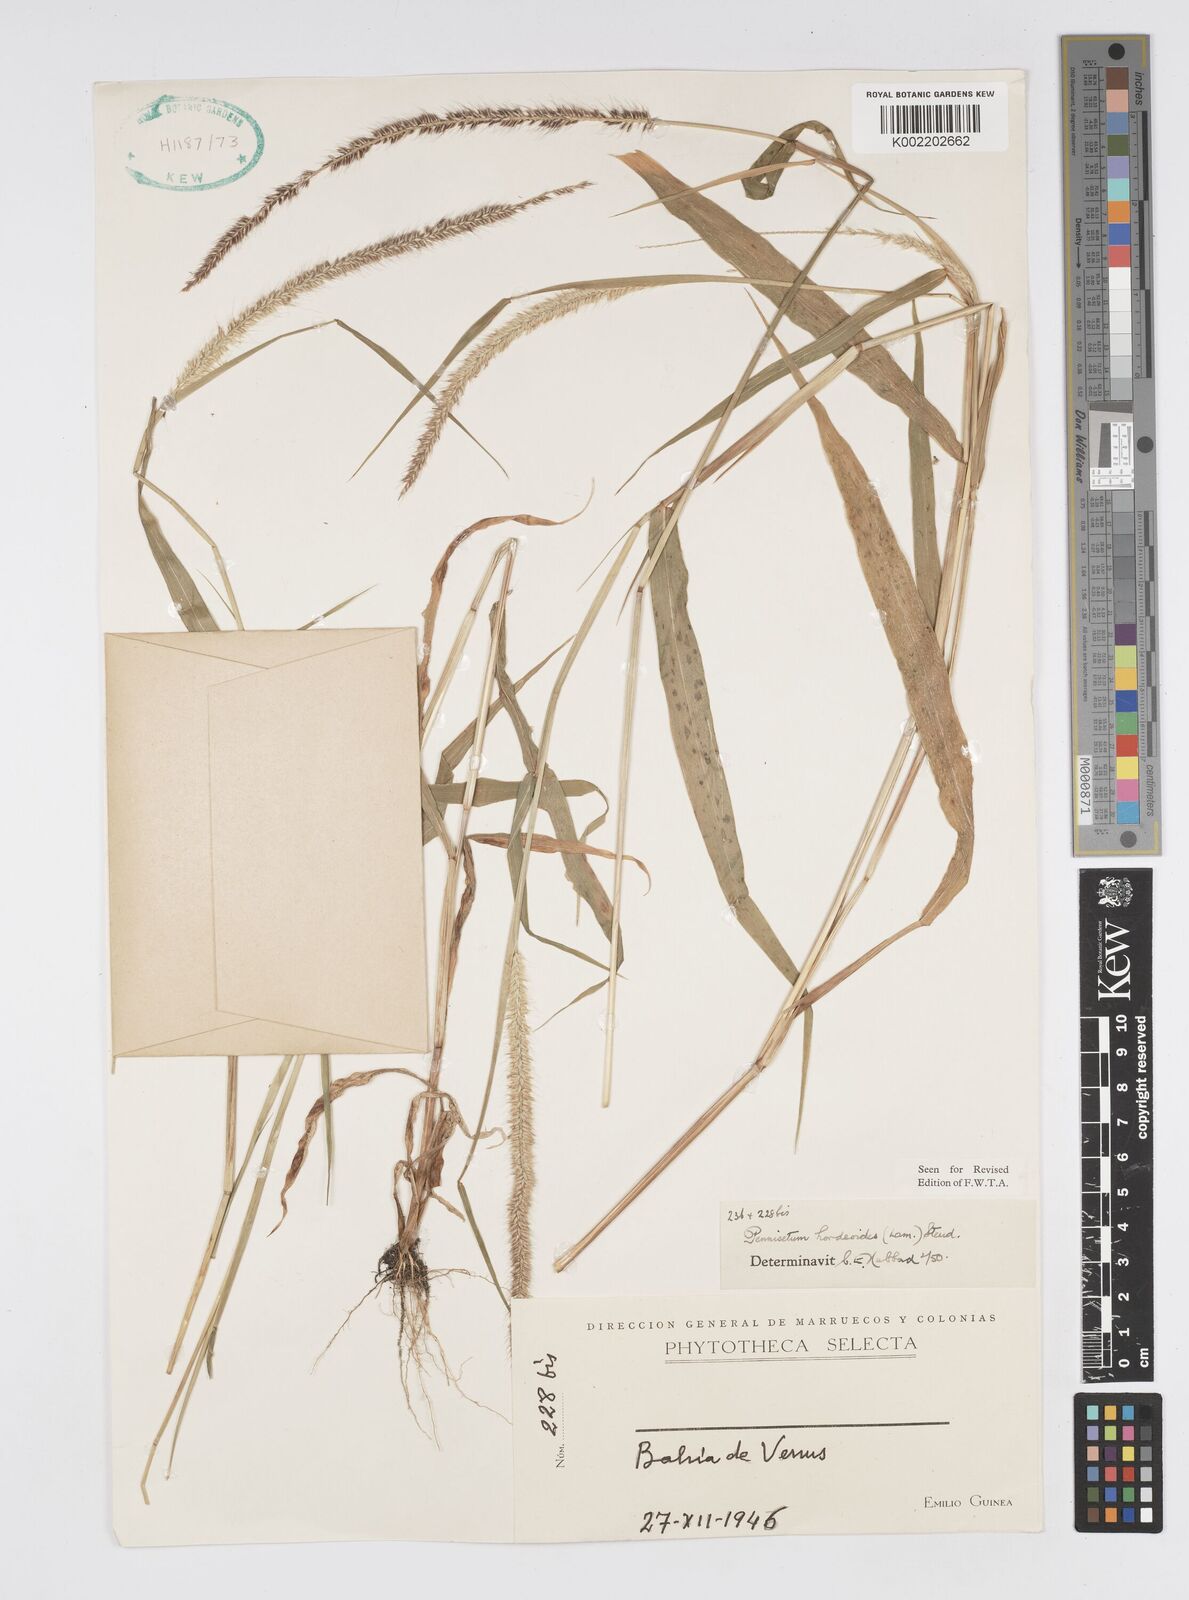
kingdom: Plantae
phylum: Tracheophyta
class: Liliopsida
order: Poales
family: Poaceae
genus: Cenchrus
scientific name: Cenchrus hordeoides
